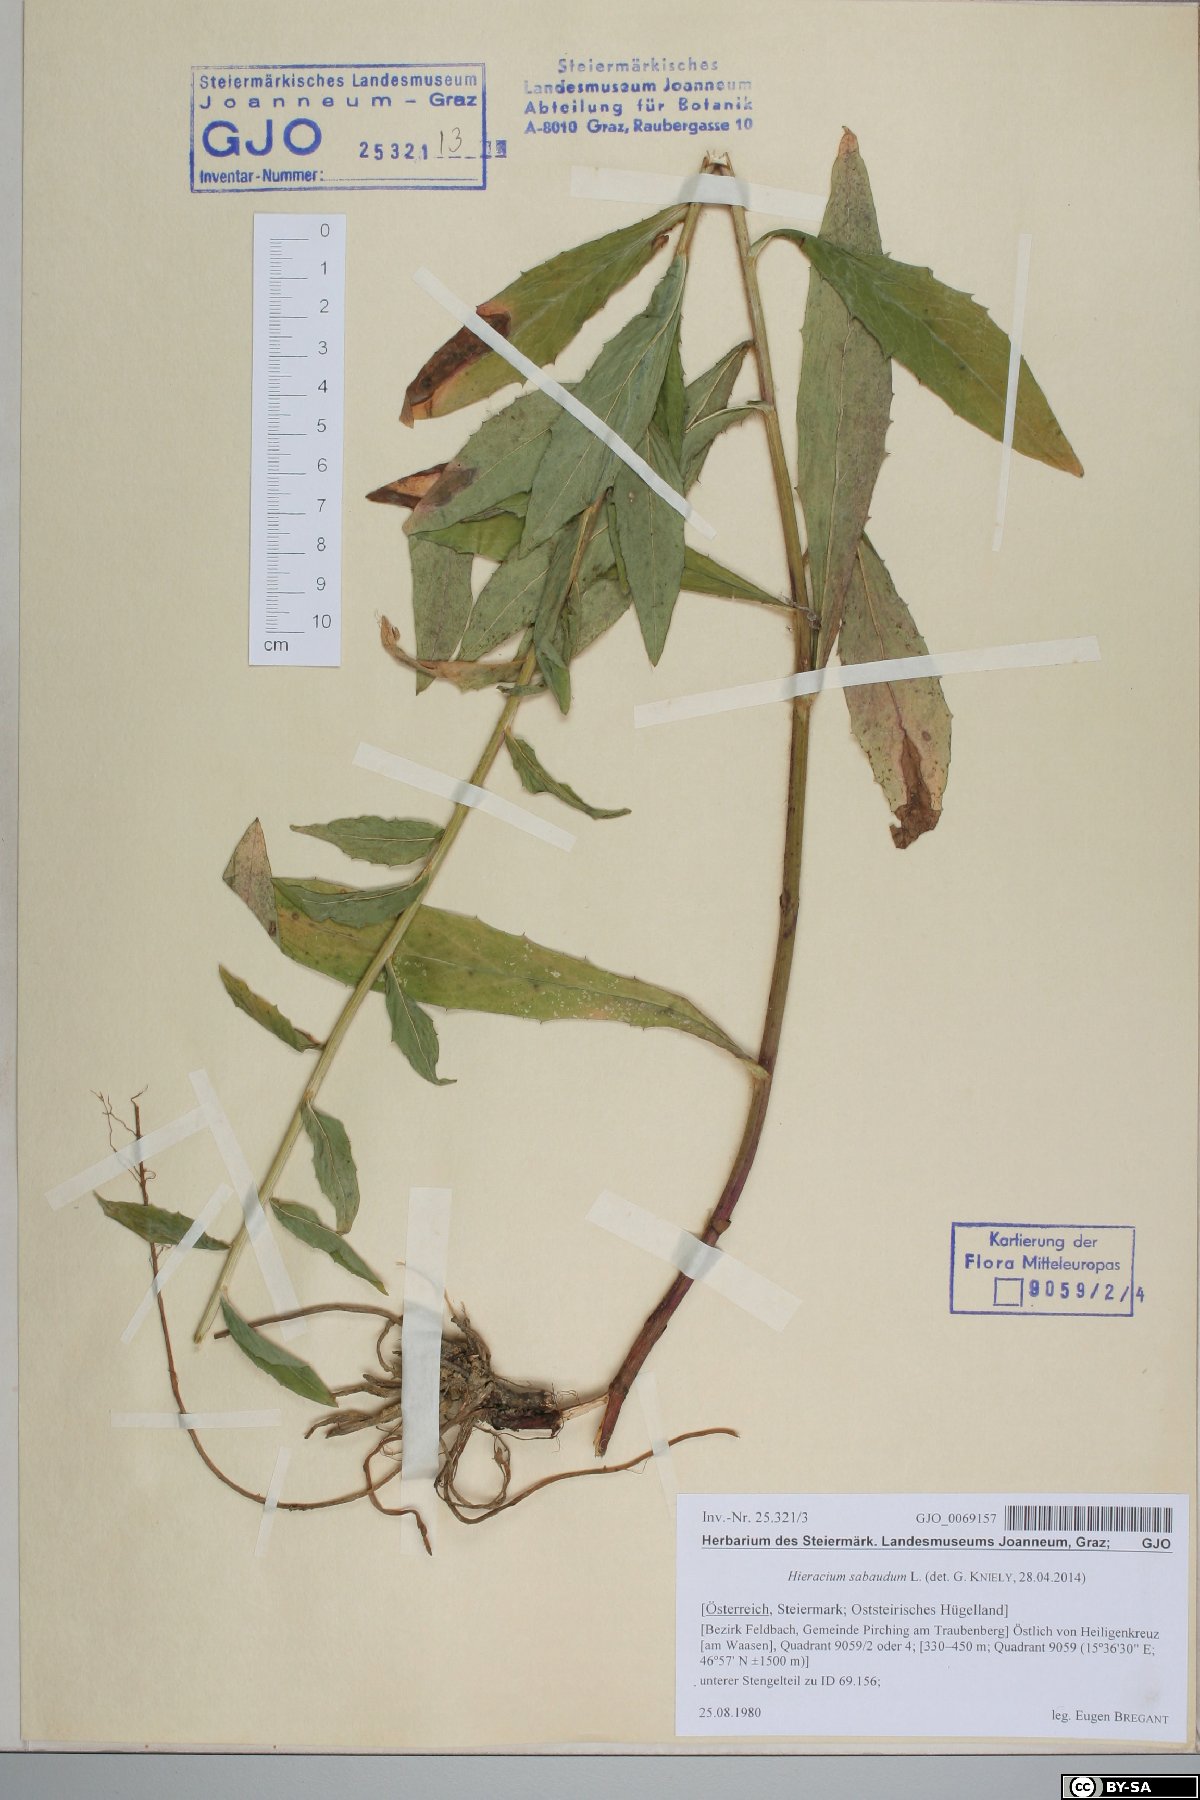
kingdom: Plantae
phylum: Tracheophyta
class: Magnoliopsida
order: Asterales
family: Asteraceae
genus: Hieracium
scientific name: Hieracium sabaudum
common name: New england hawkweed
